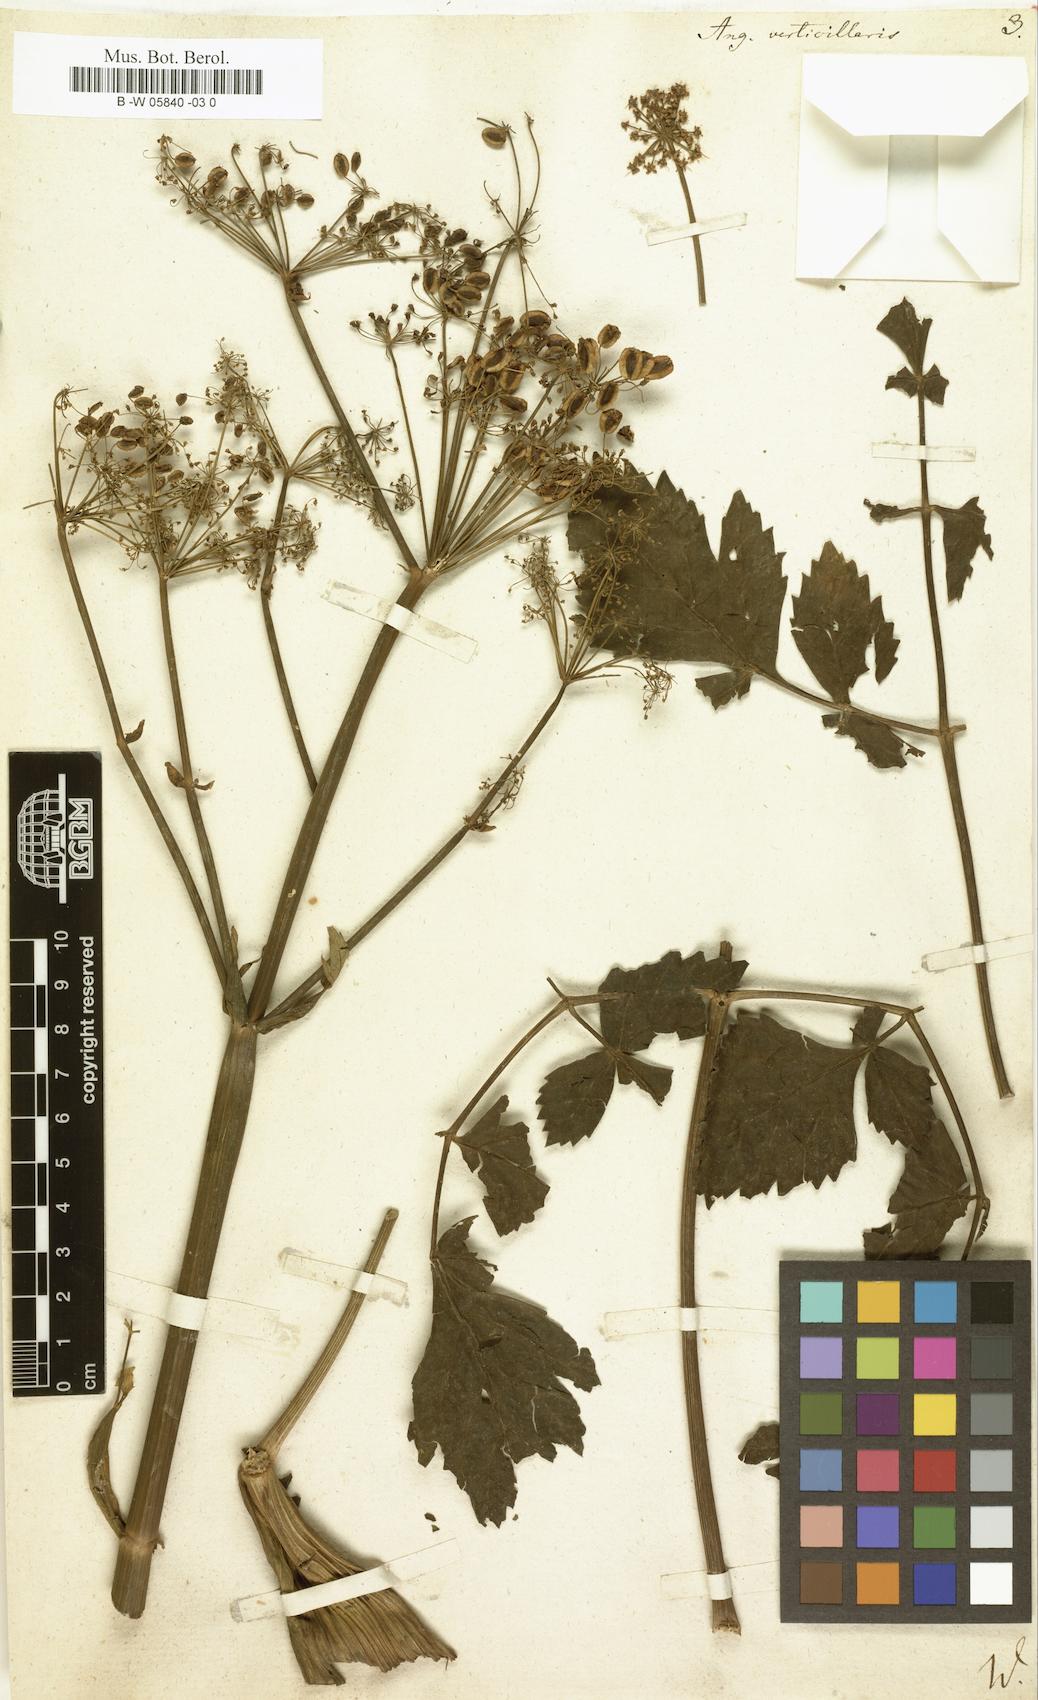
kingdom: Plantae
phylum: Tracheophyta
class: Magnoliopsida
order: Apiales
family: Apiaceae
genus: Tommasinia
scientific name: Tommasinia altissima
